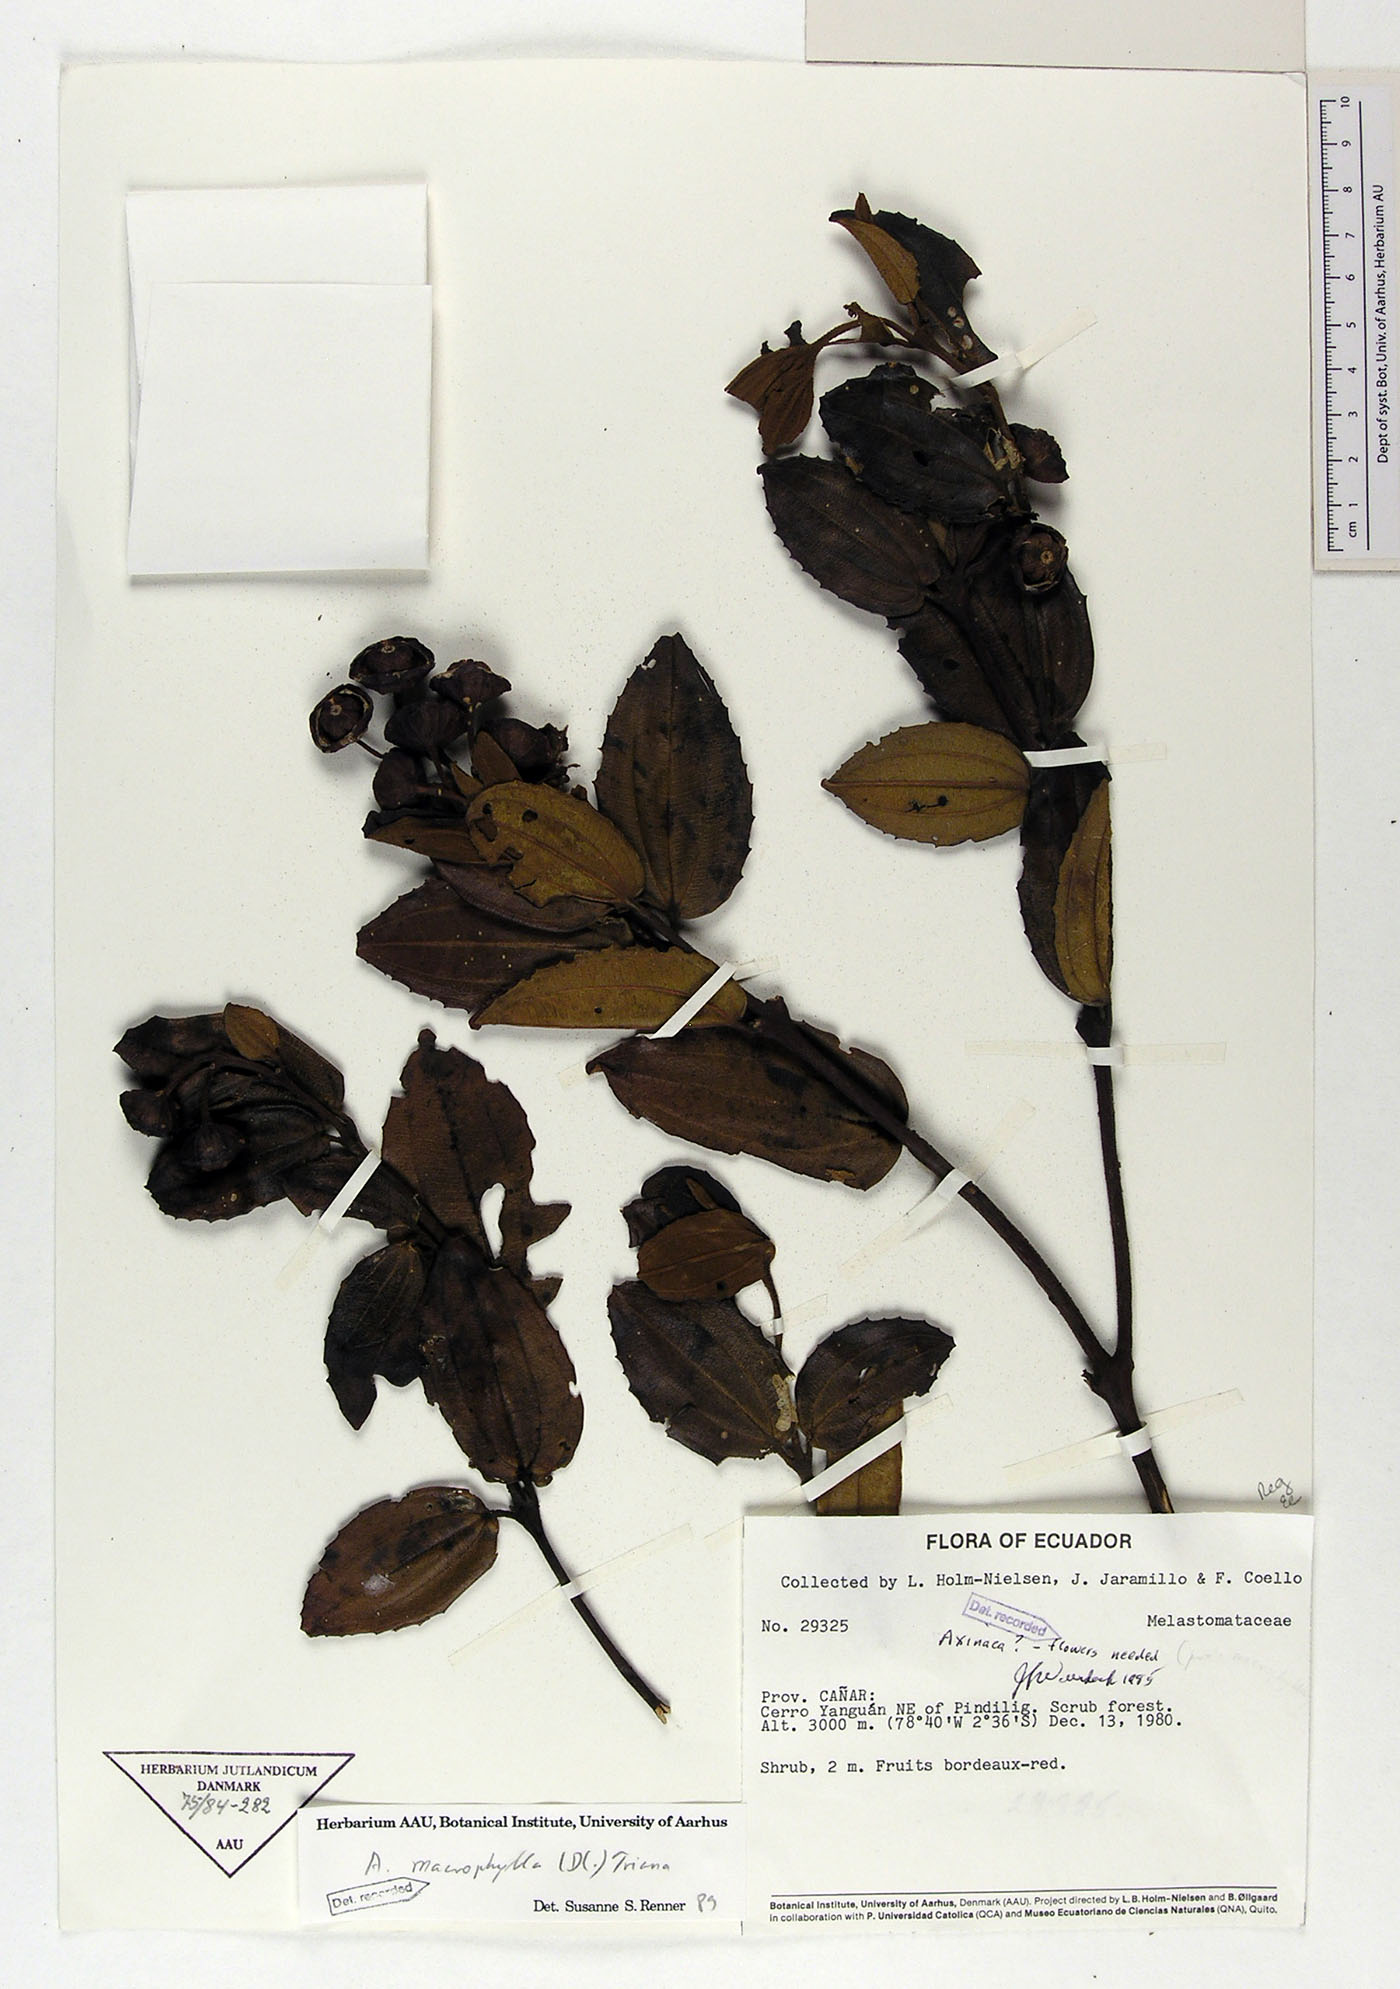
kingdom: Plantae
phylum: Tracheophyta
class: Magnoliopsida
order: Myrtales
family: Melastomataceae
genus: Axinaea
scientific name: Axinaea macrophylla
